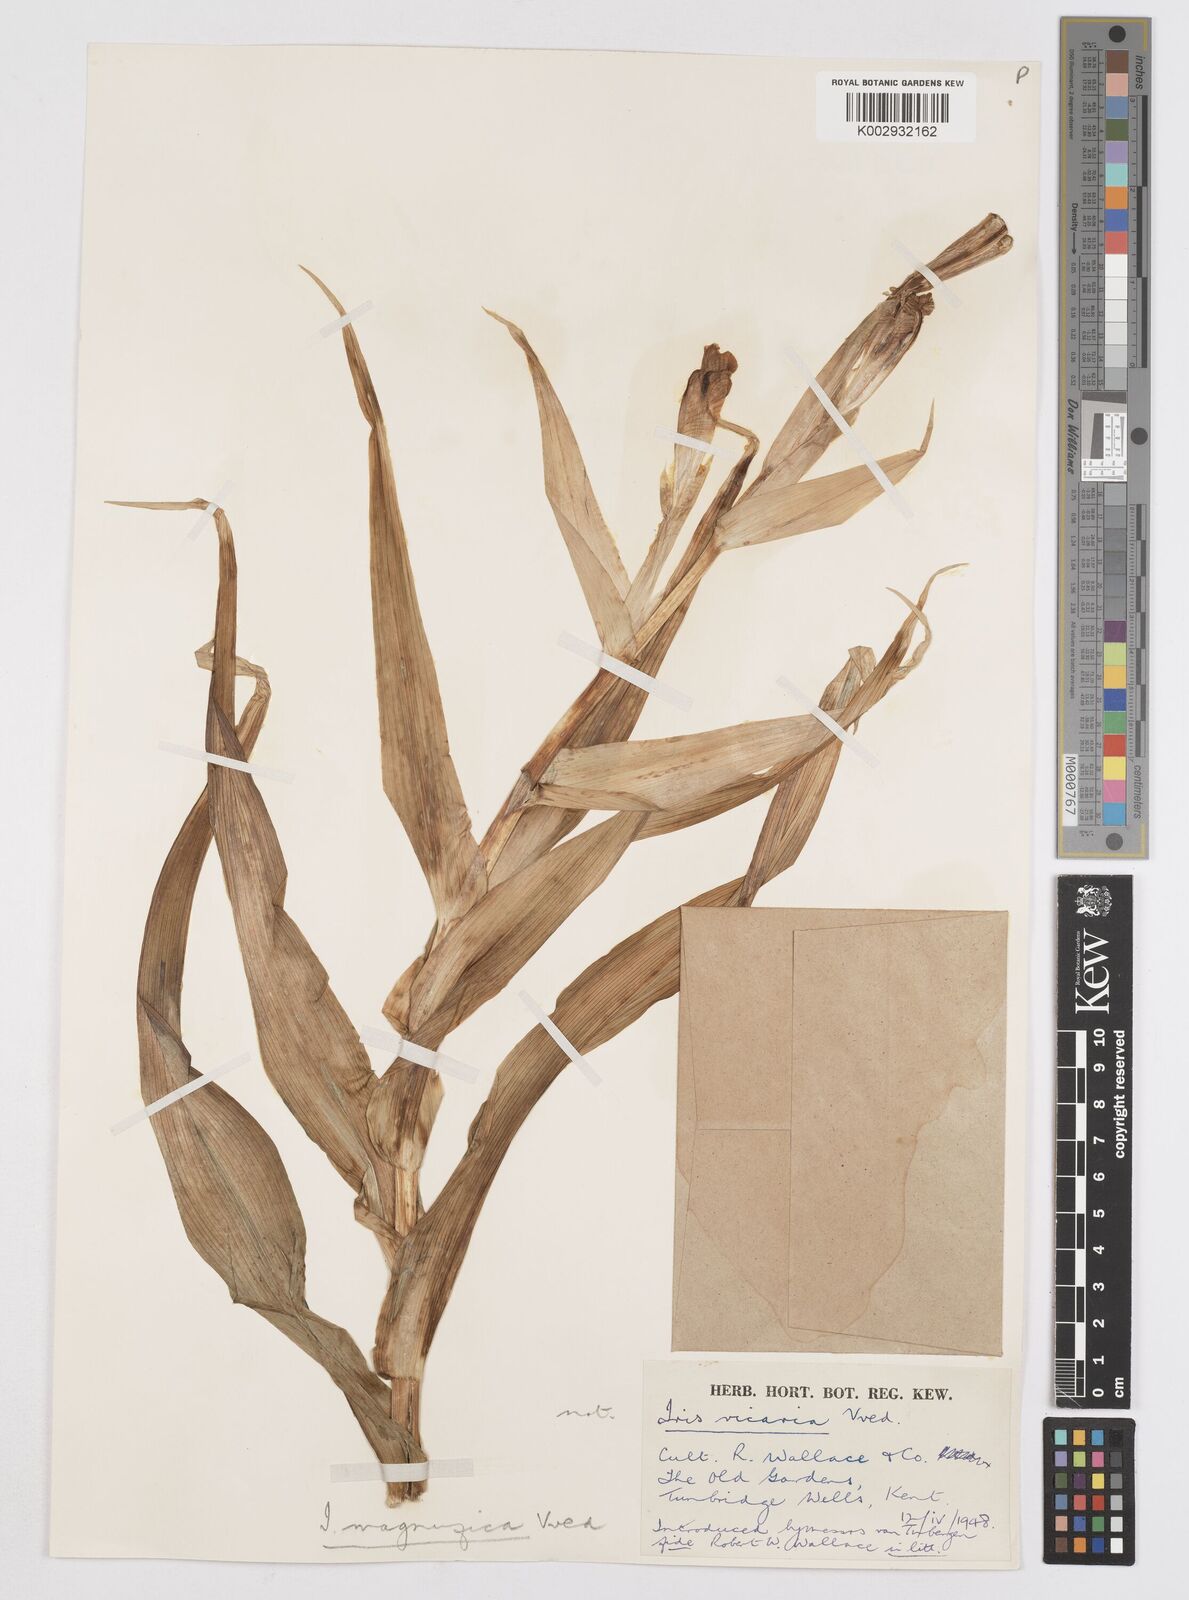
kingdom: Plantae
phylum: Tracheophyta
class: Liliopsida
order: Asparagales
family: Iridaceae
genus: Iris
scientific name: Iris magnifica
